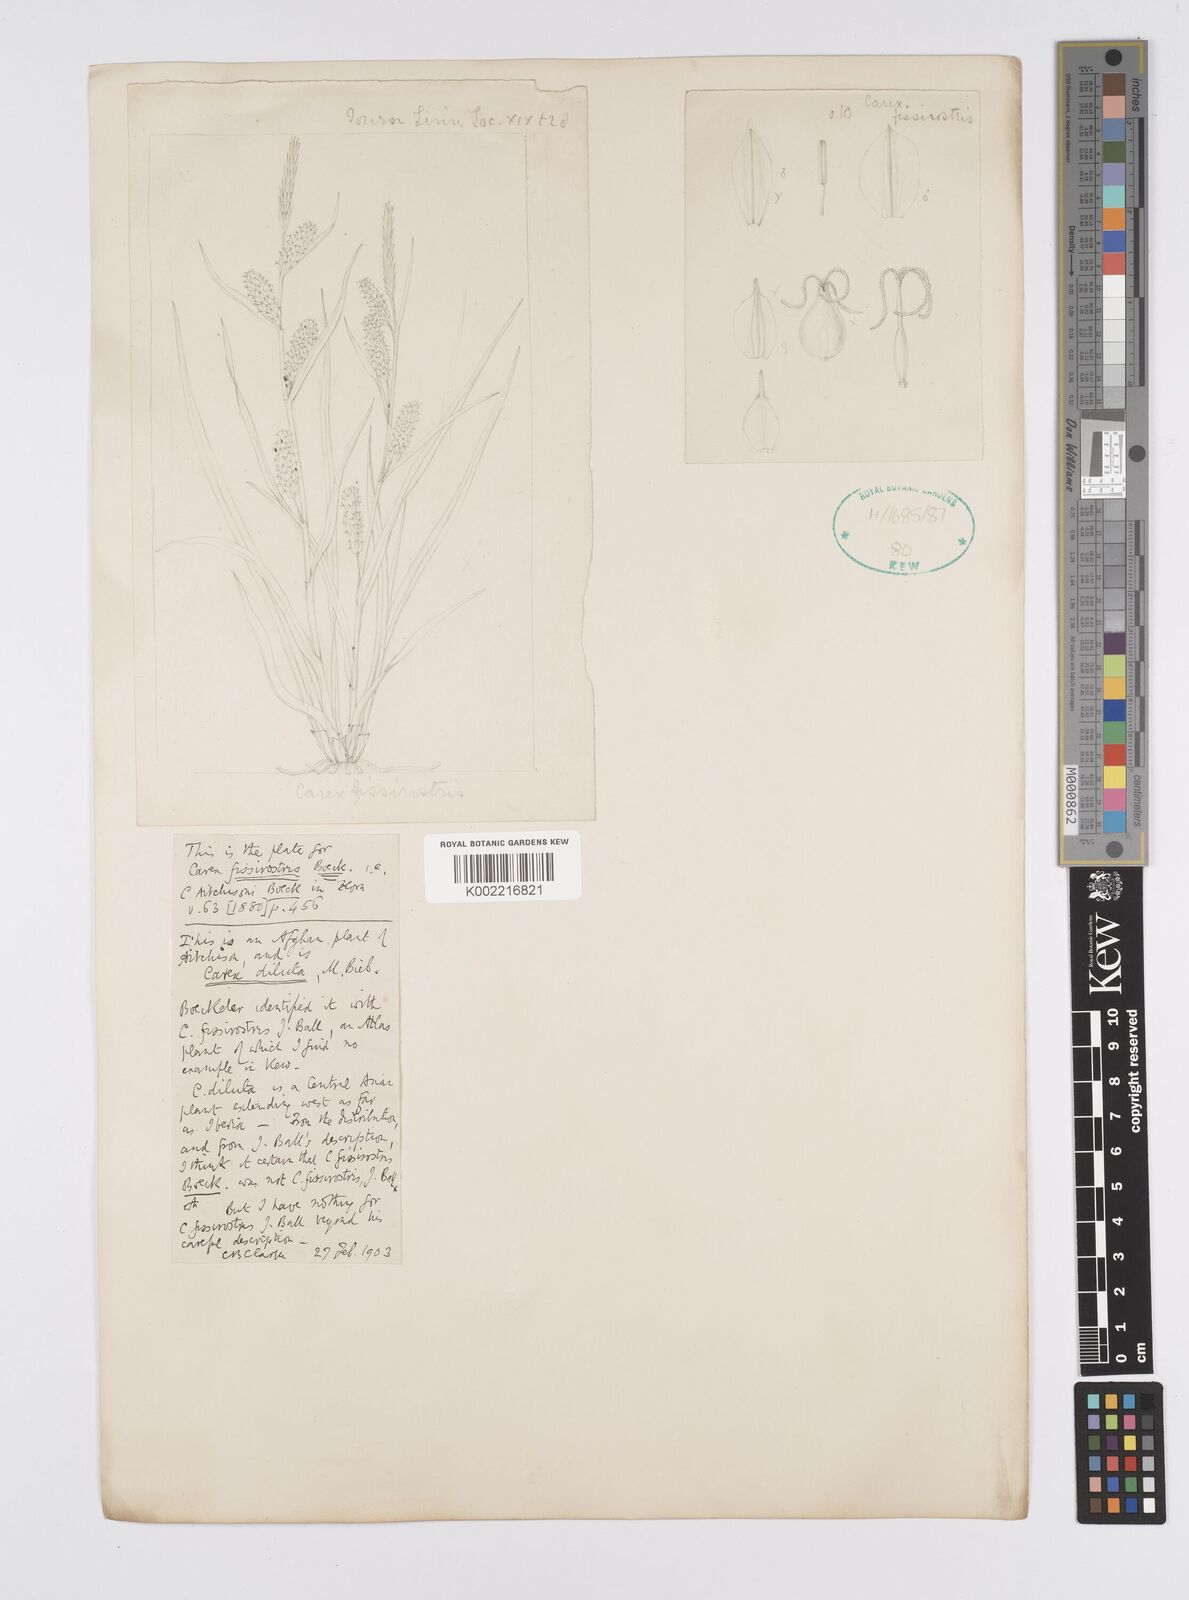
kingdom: Plantae
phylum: Tracheophyta
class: Liliopsida
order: Poales
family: Cyperaceae
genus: Carex
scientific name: Carex diluta
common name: Sedge
